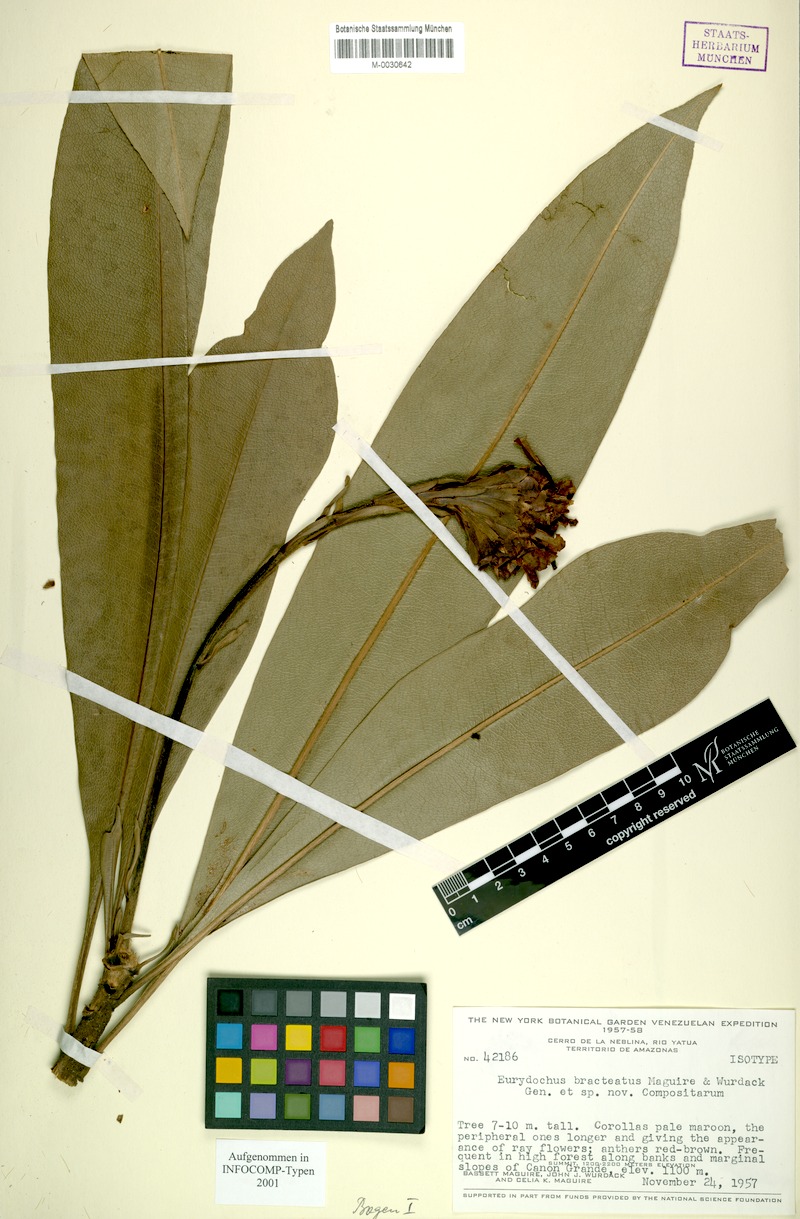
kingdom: Plantae
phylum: Tracheophyta
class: Magnoliopsida
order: Asterales
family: Asteraceae
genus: Eurydochus
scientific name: Eurydochus bracteatus
